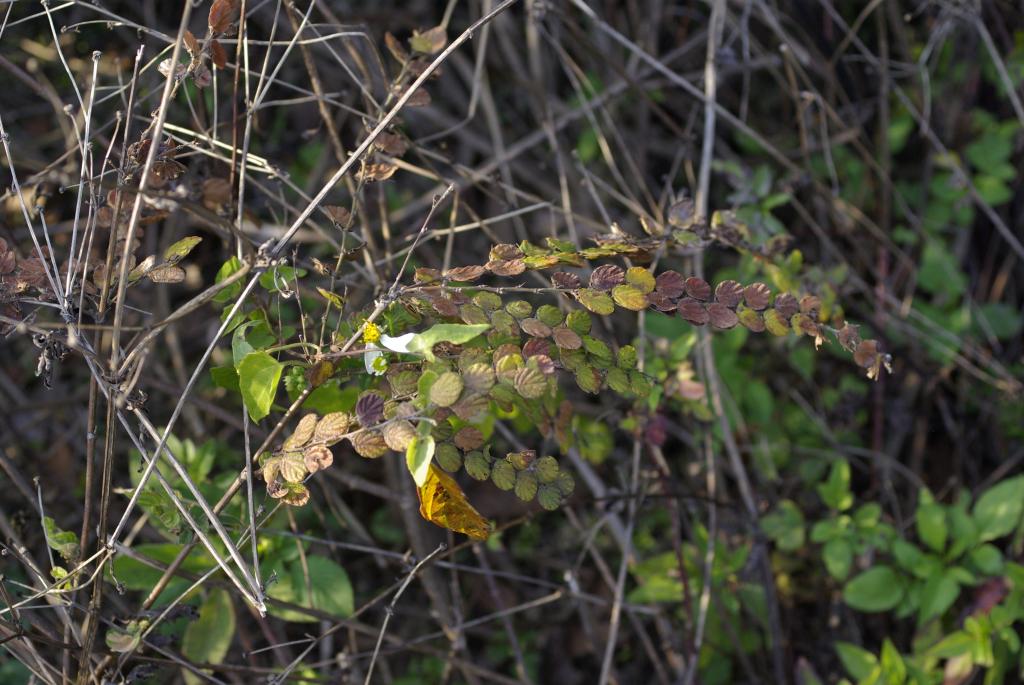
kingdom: Plantae
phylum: Tracheophyta
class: Magnoliopsida
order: Fabales
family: Fabaceae
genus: Phyllodium
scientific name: Phyllodium pulchellum
